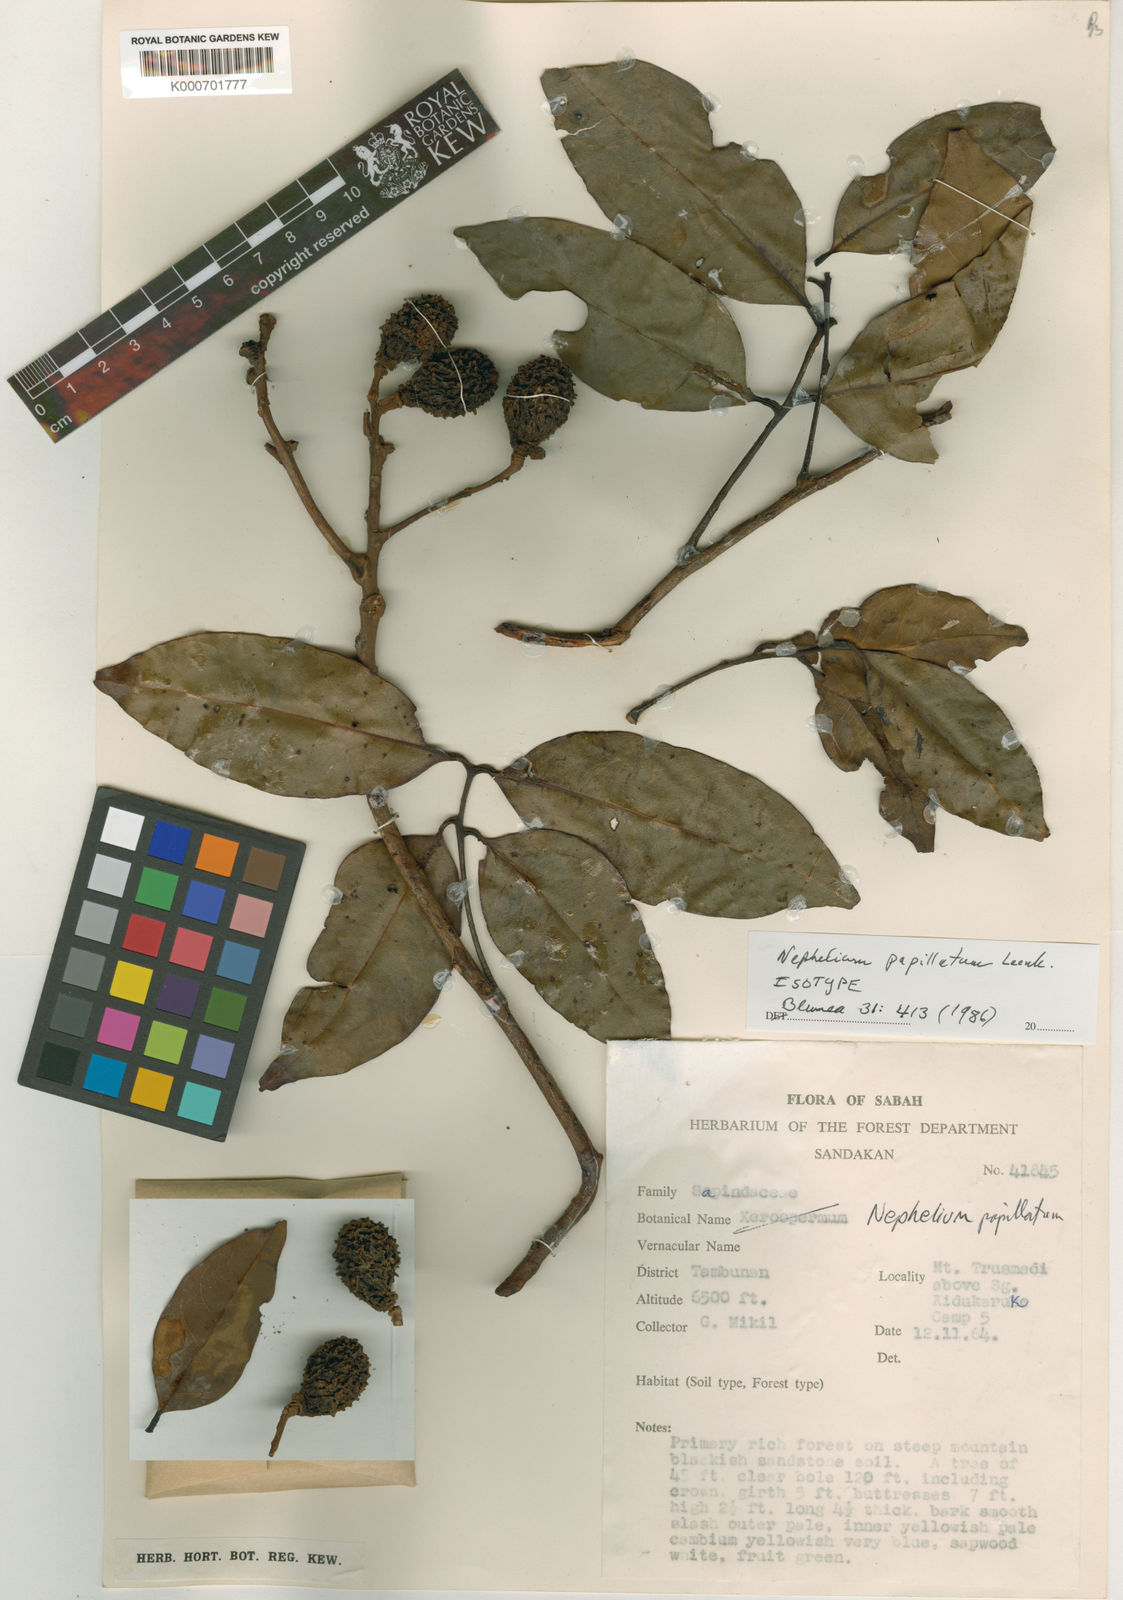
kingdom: Plantae
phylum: Tracheophyta
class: Magnoliopsida
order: Sapindales
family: Sapindaceae
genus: Nephelium
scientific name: Nephelium papillatum
